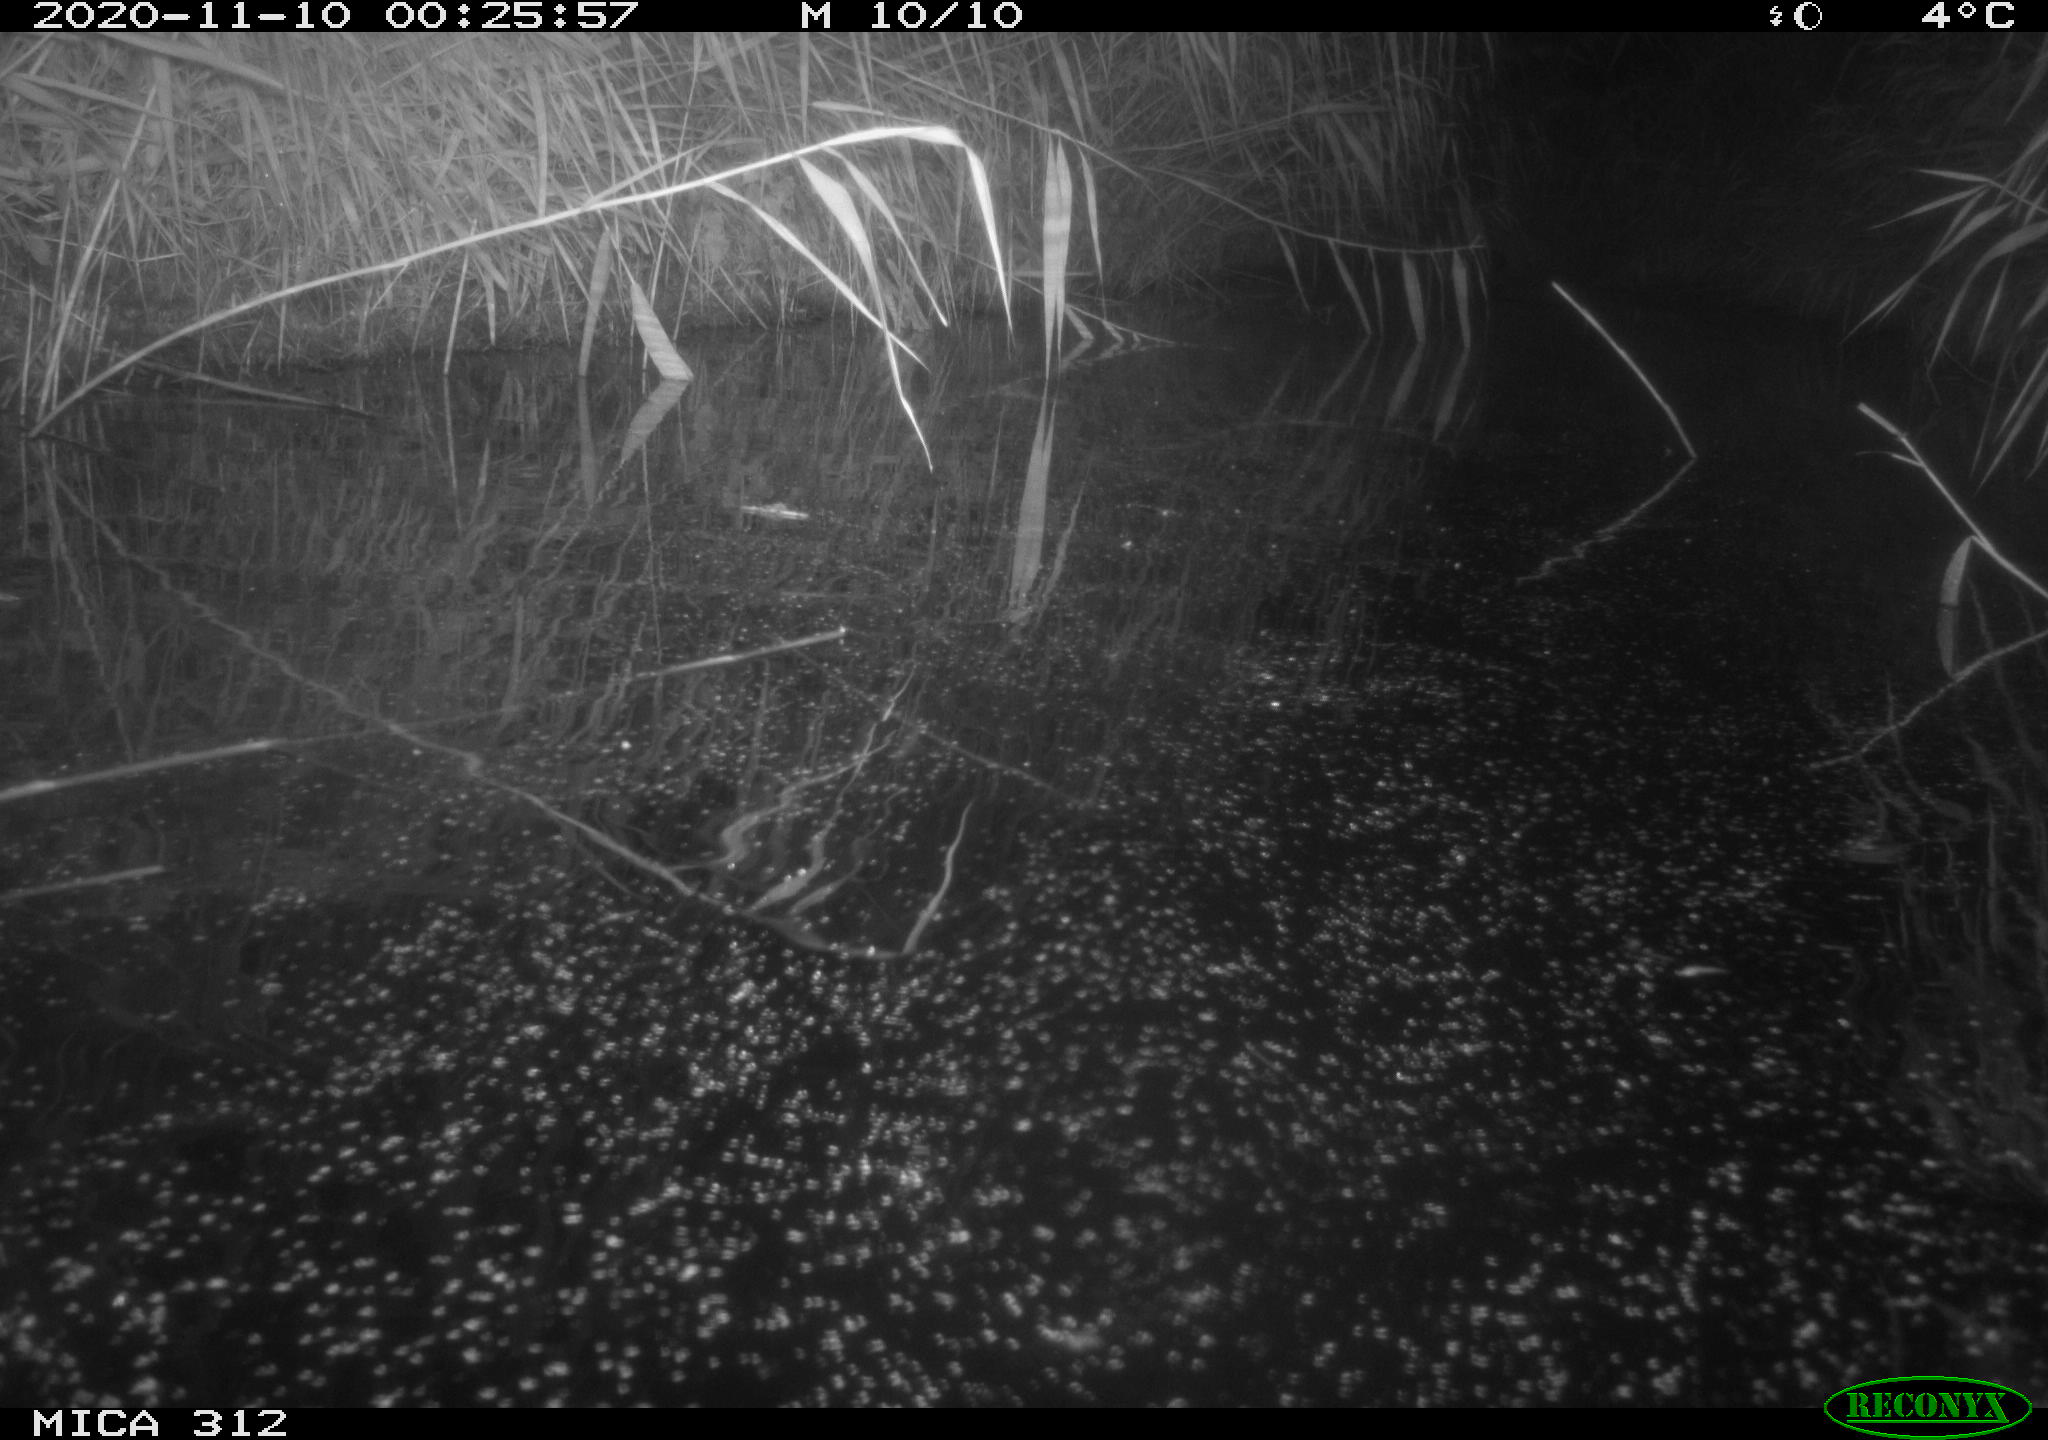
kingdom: Animalia
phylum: Chordata
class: Mammalia
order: Rodentia
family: Muridae
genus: Rattus
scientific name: Rattus norvegicus
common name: Brown rat
